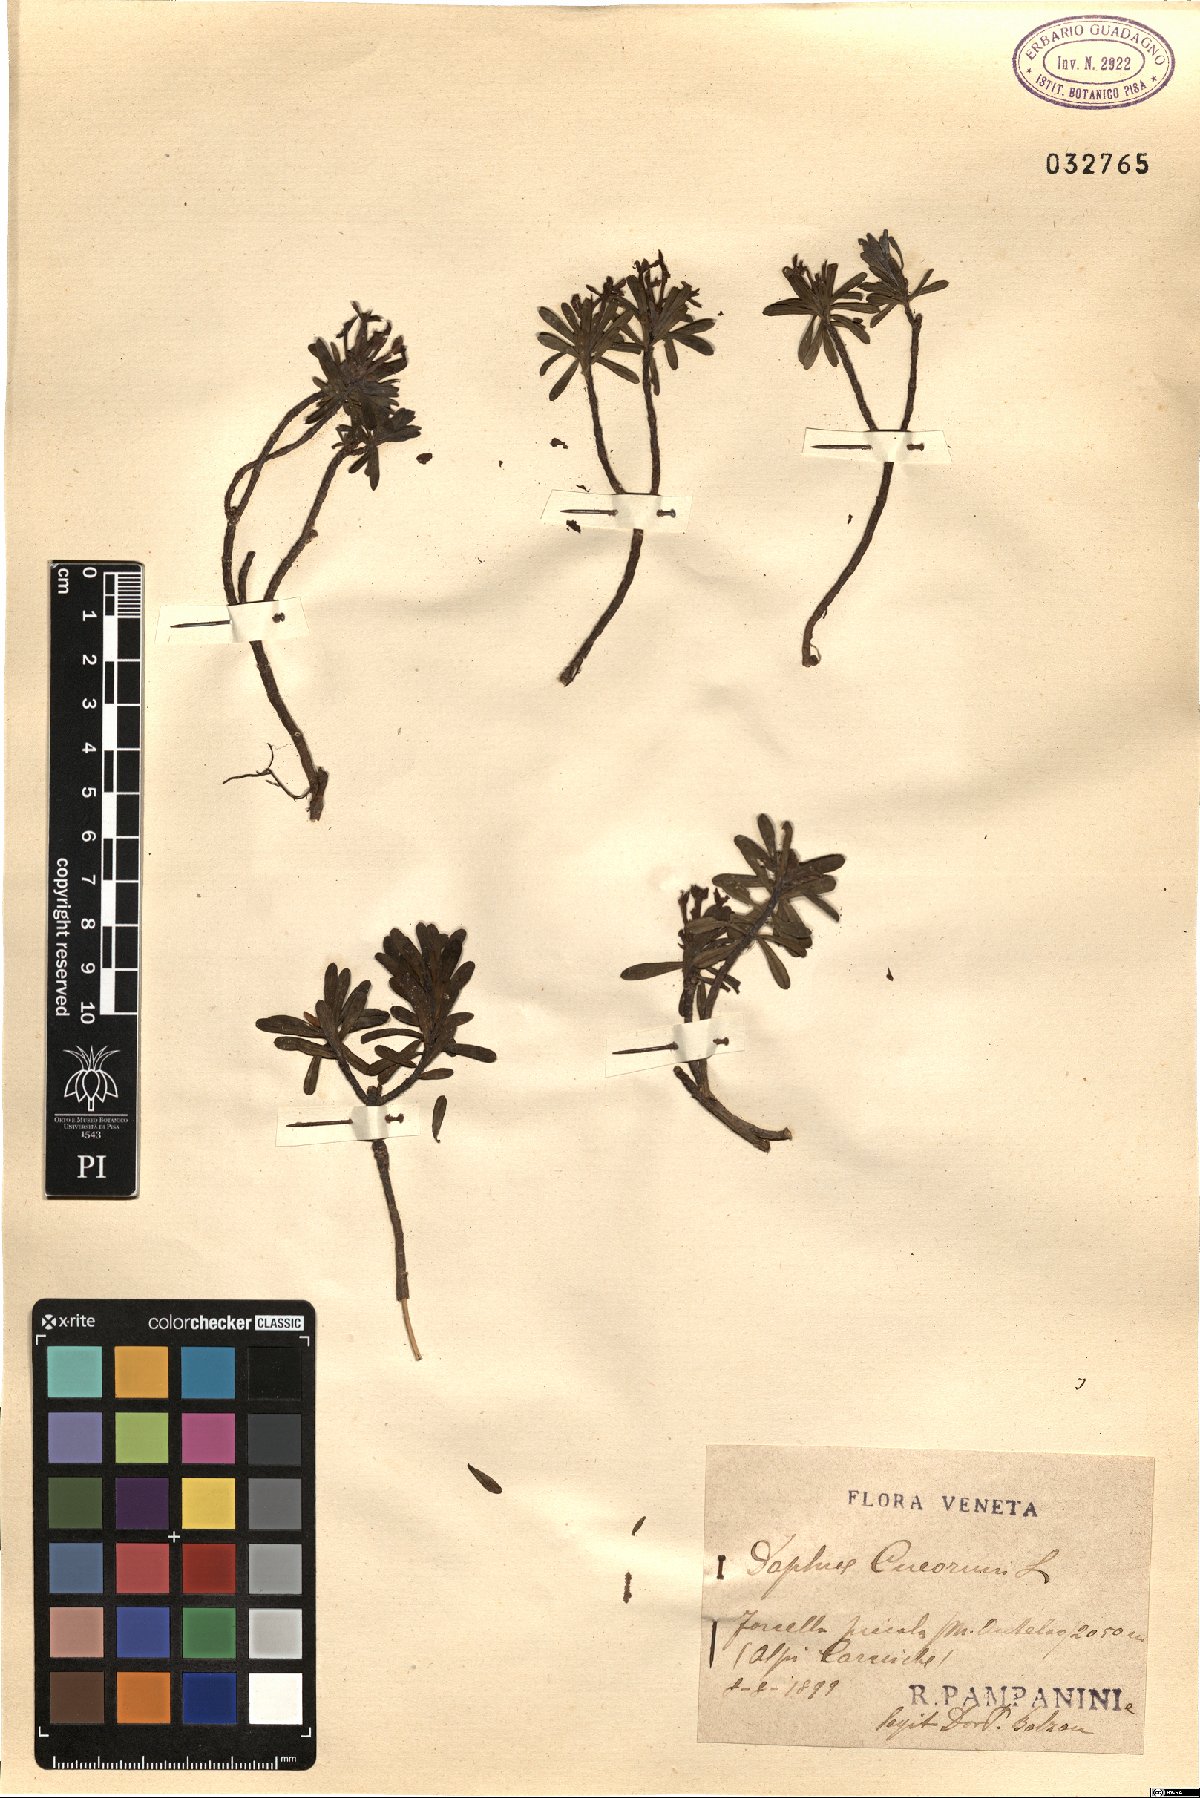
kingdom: Plantae
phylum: Tracheophyta
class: Magnoliopsida
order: Malvales
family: Thymelaeaceae
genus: Daphne
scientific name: Daphne cneorum
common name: Garland-flower
